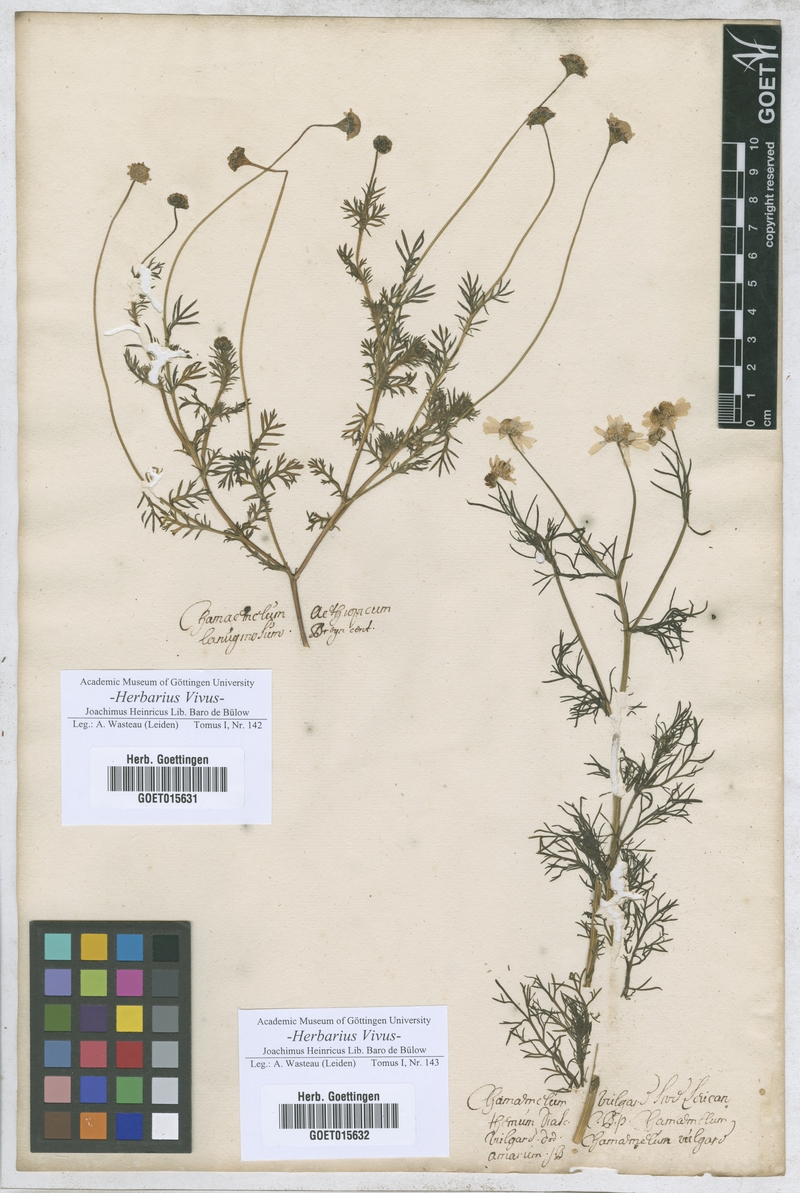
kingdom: Plantae
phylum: Tracheophyta
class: Magnoliopsida
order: Asterales
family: Asteraceae
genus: Chamaemelum
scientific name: Chamaemelum
